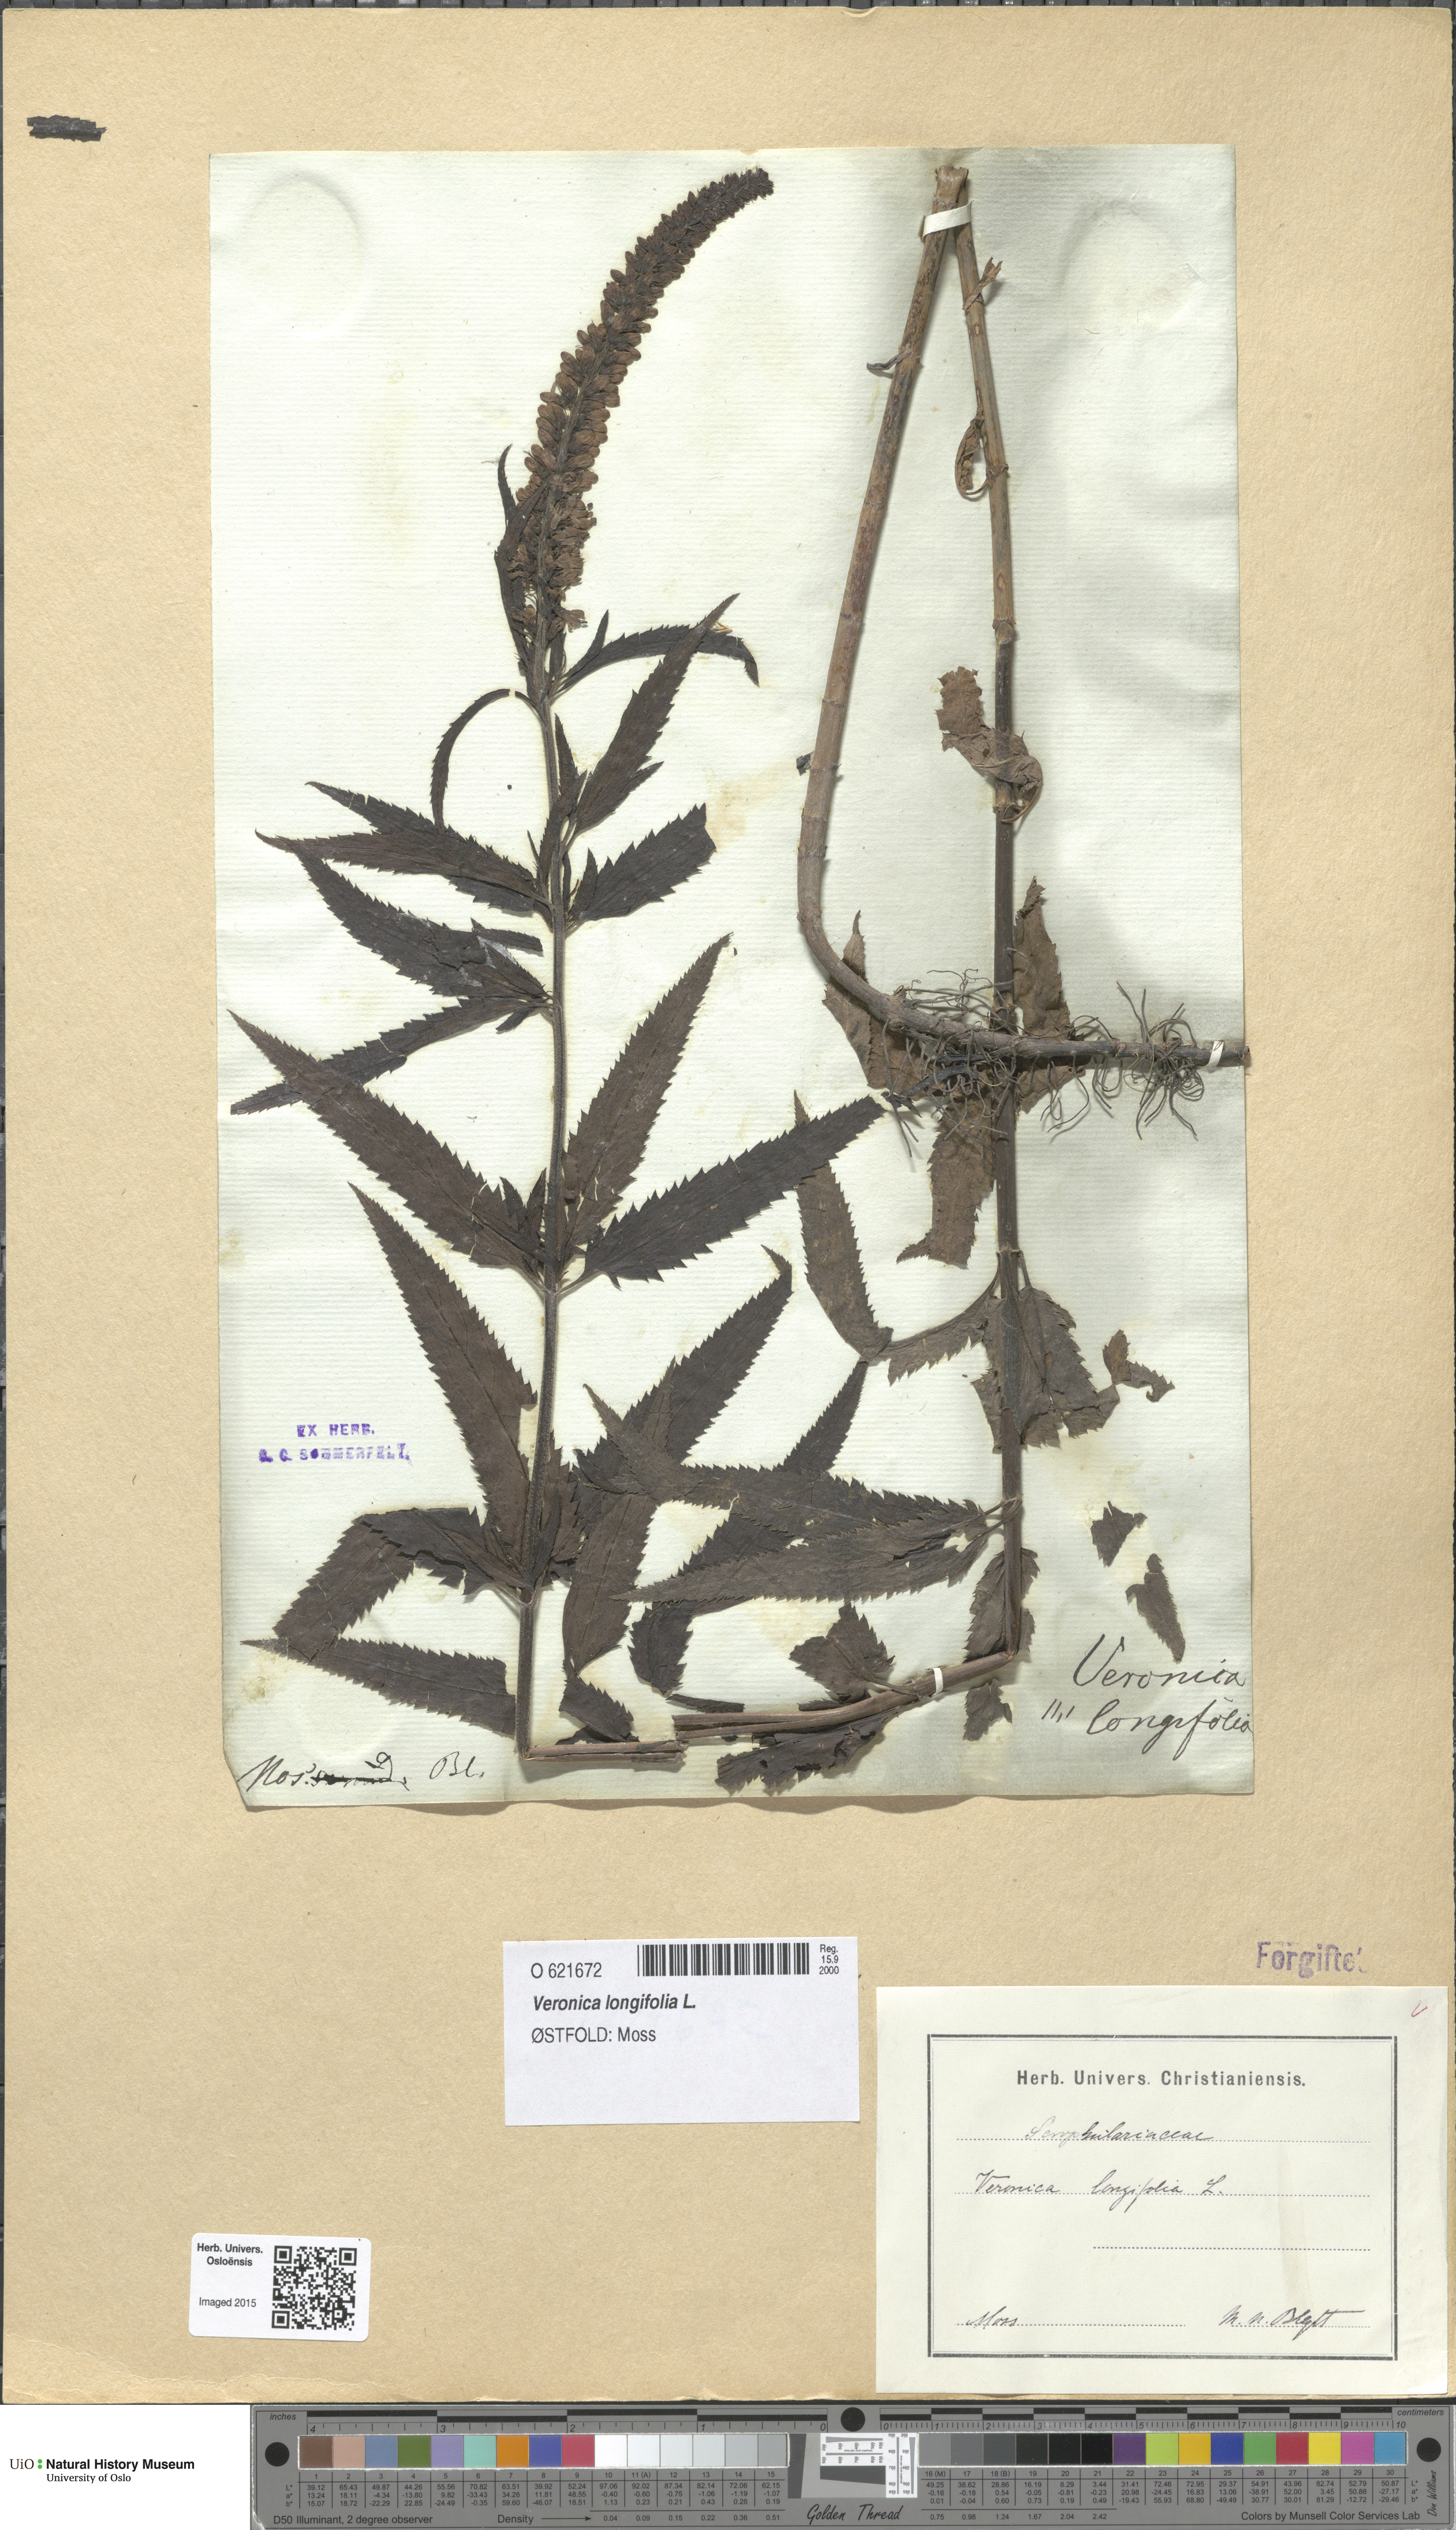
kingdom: Plantae
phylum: Tracheophyta
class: Magnoliopsida
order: Lamiales
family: Plantaginaceae
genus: Veronica
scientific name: Veronica longifolia
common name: Garden speedwell
